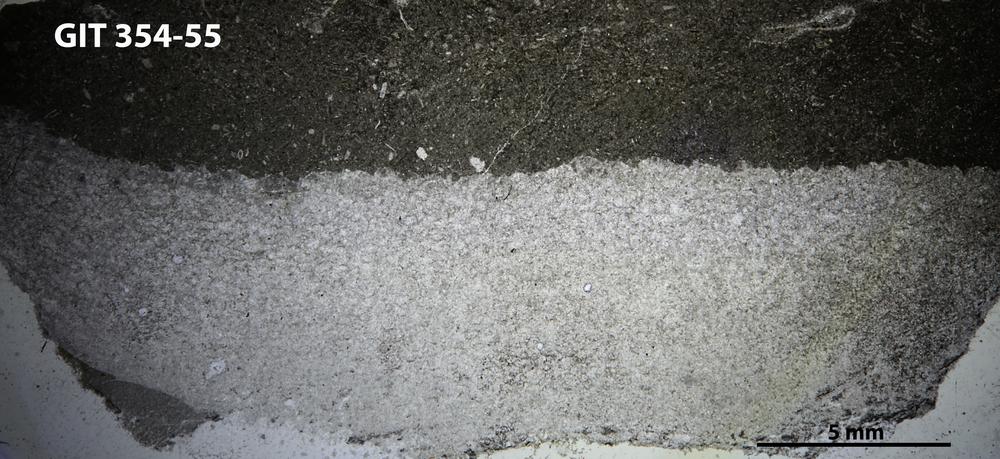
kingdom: Animalia
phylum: Porifera
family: Rosenellidae
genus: Cystostroma
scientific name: Cystostroma estoniense
